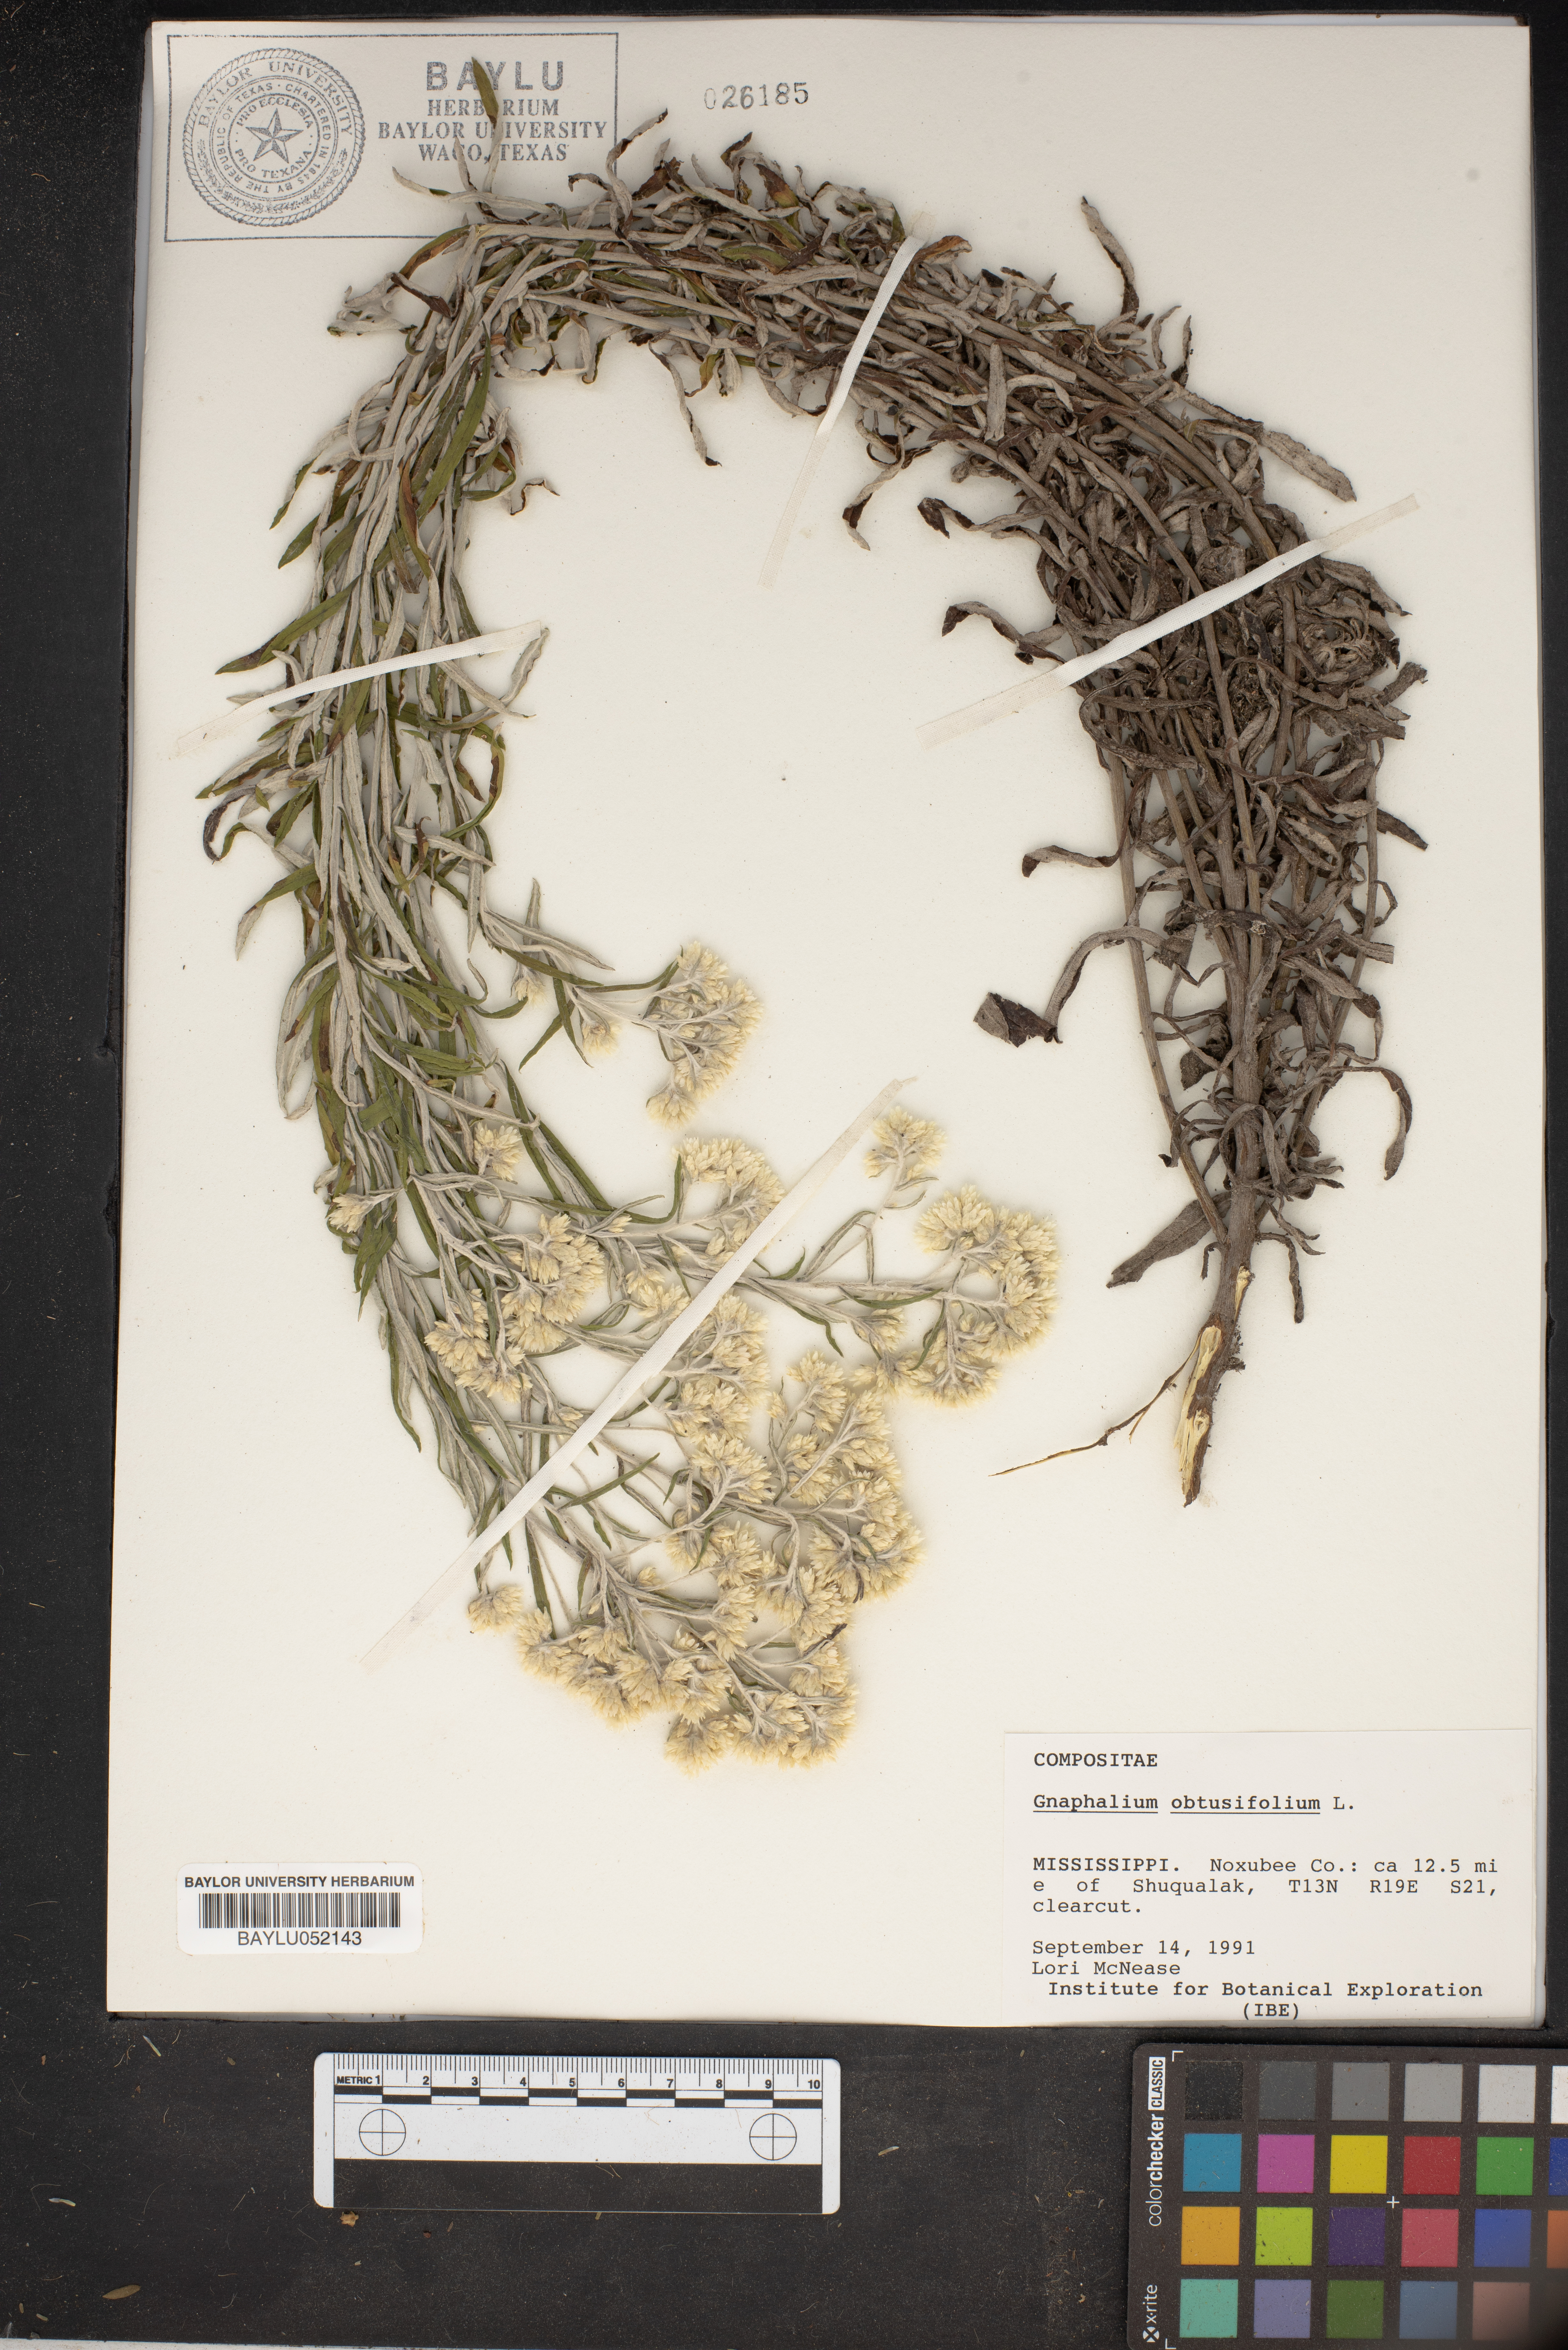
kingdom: Plantae
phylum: Tracheophyta
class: Magnoliopsida
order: Asterales
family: Asteraceae
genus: Pseudognaphalium
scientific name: Pseudognaphalium obtusifolium
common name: Eastern rabbit-tobacco
